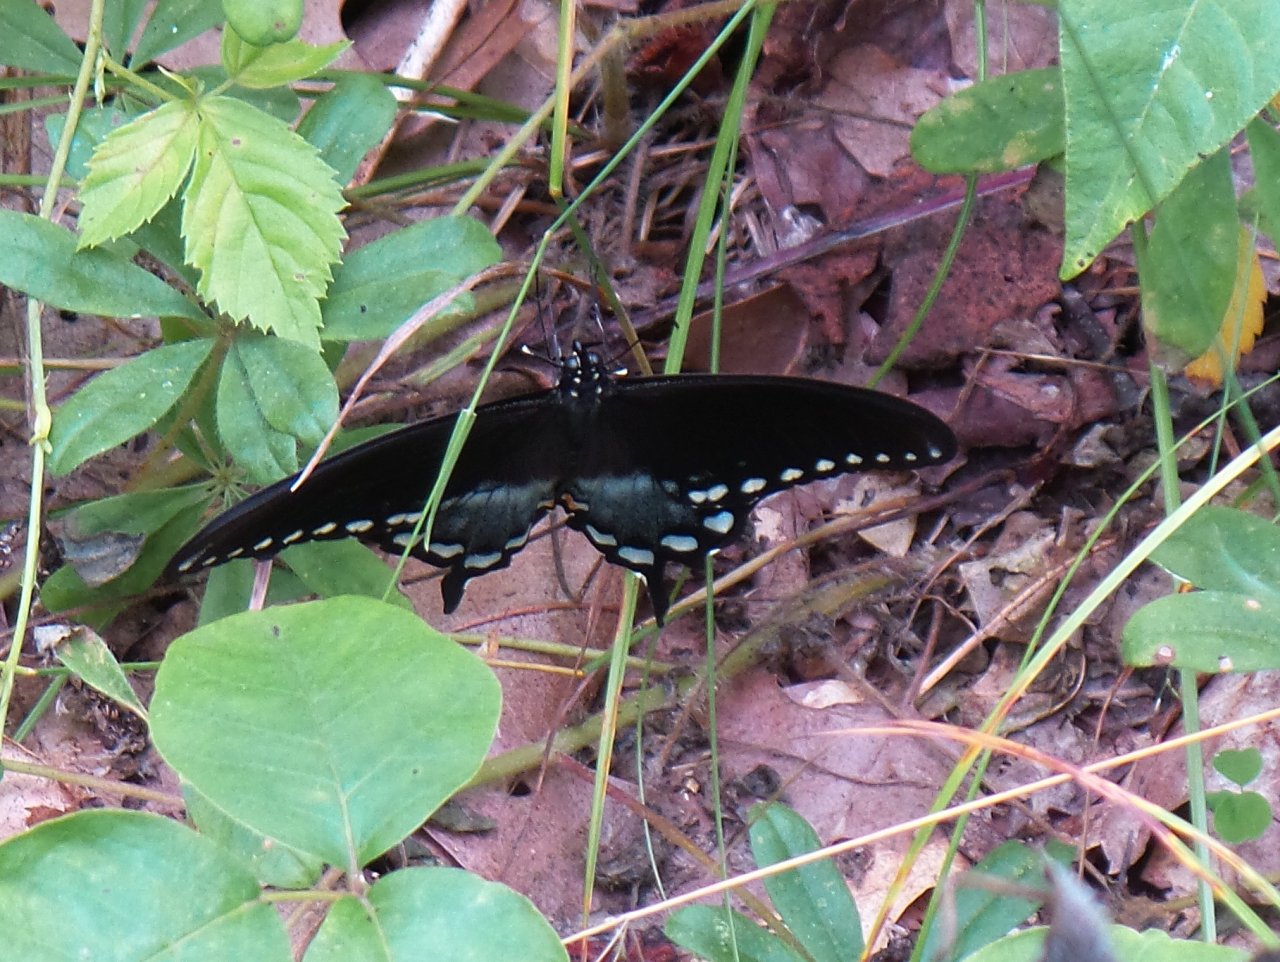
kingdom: Animalia
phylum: Arthropoda
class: Insecta
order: Lepidoptera
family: Papilionidae
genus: Pterourus
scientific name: Pterourus troilus
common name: Spicebush Swallowtail
